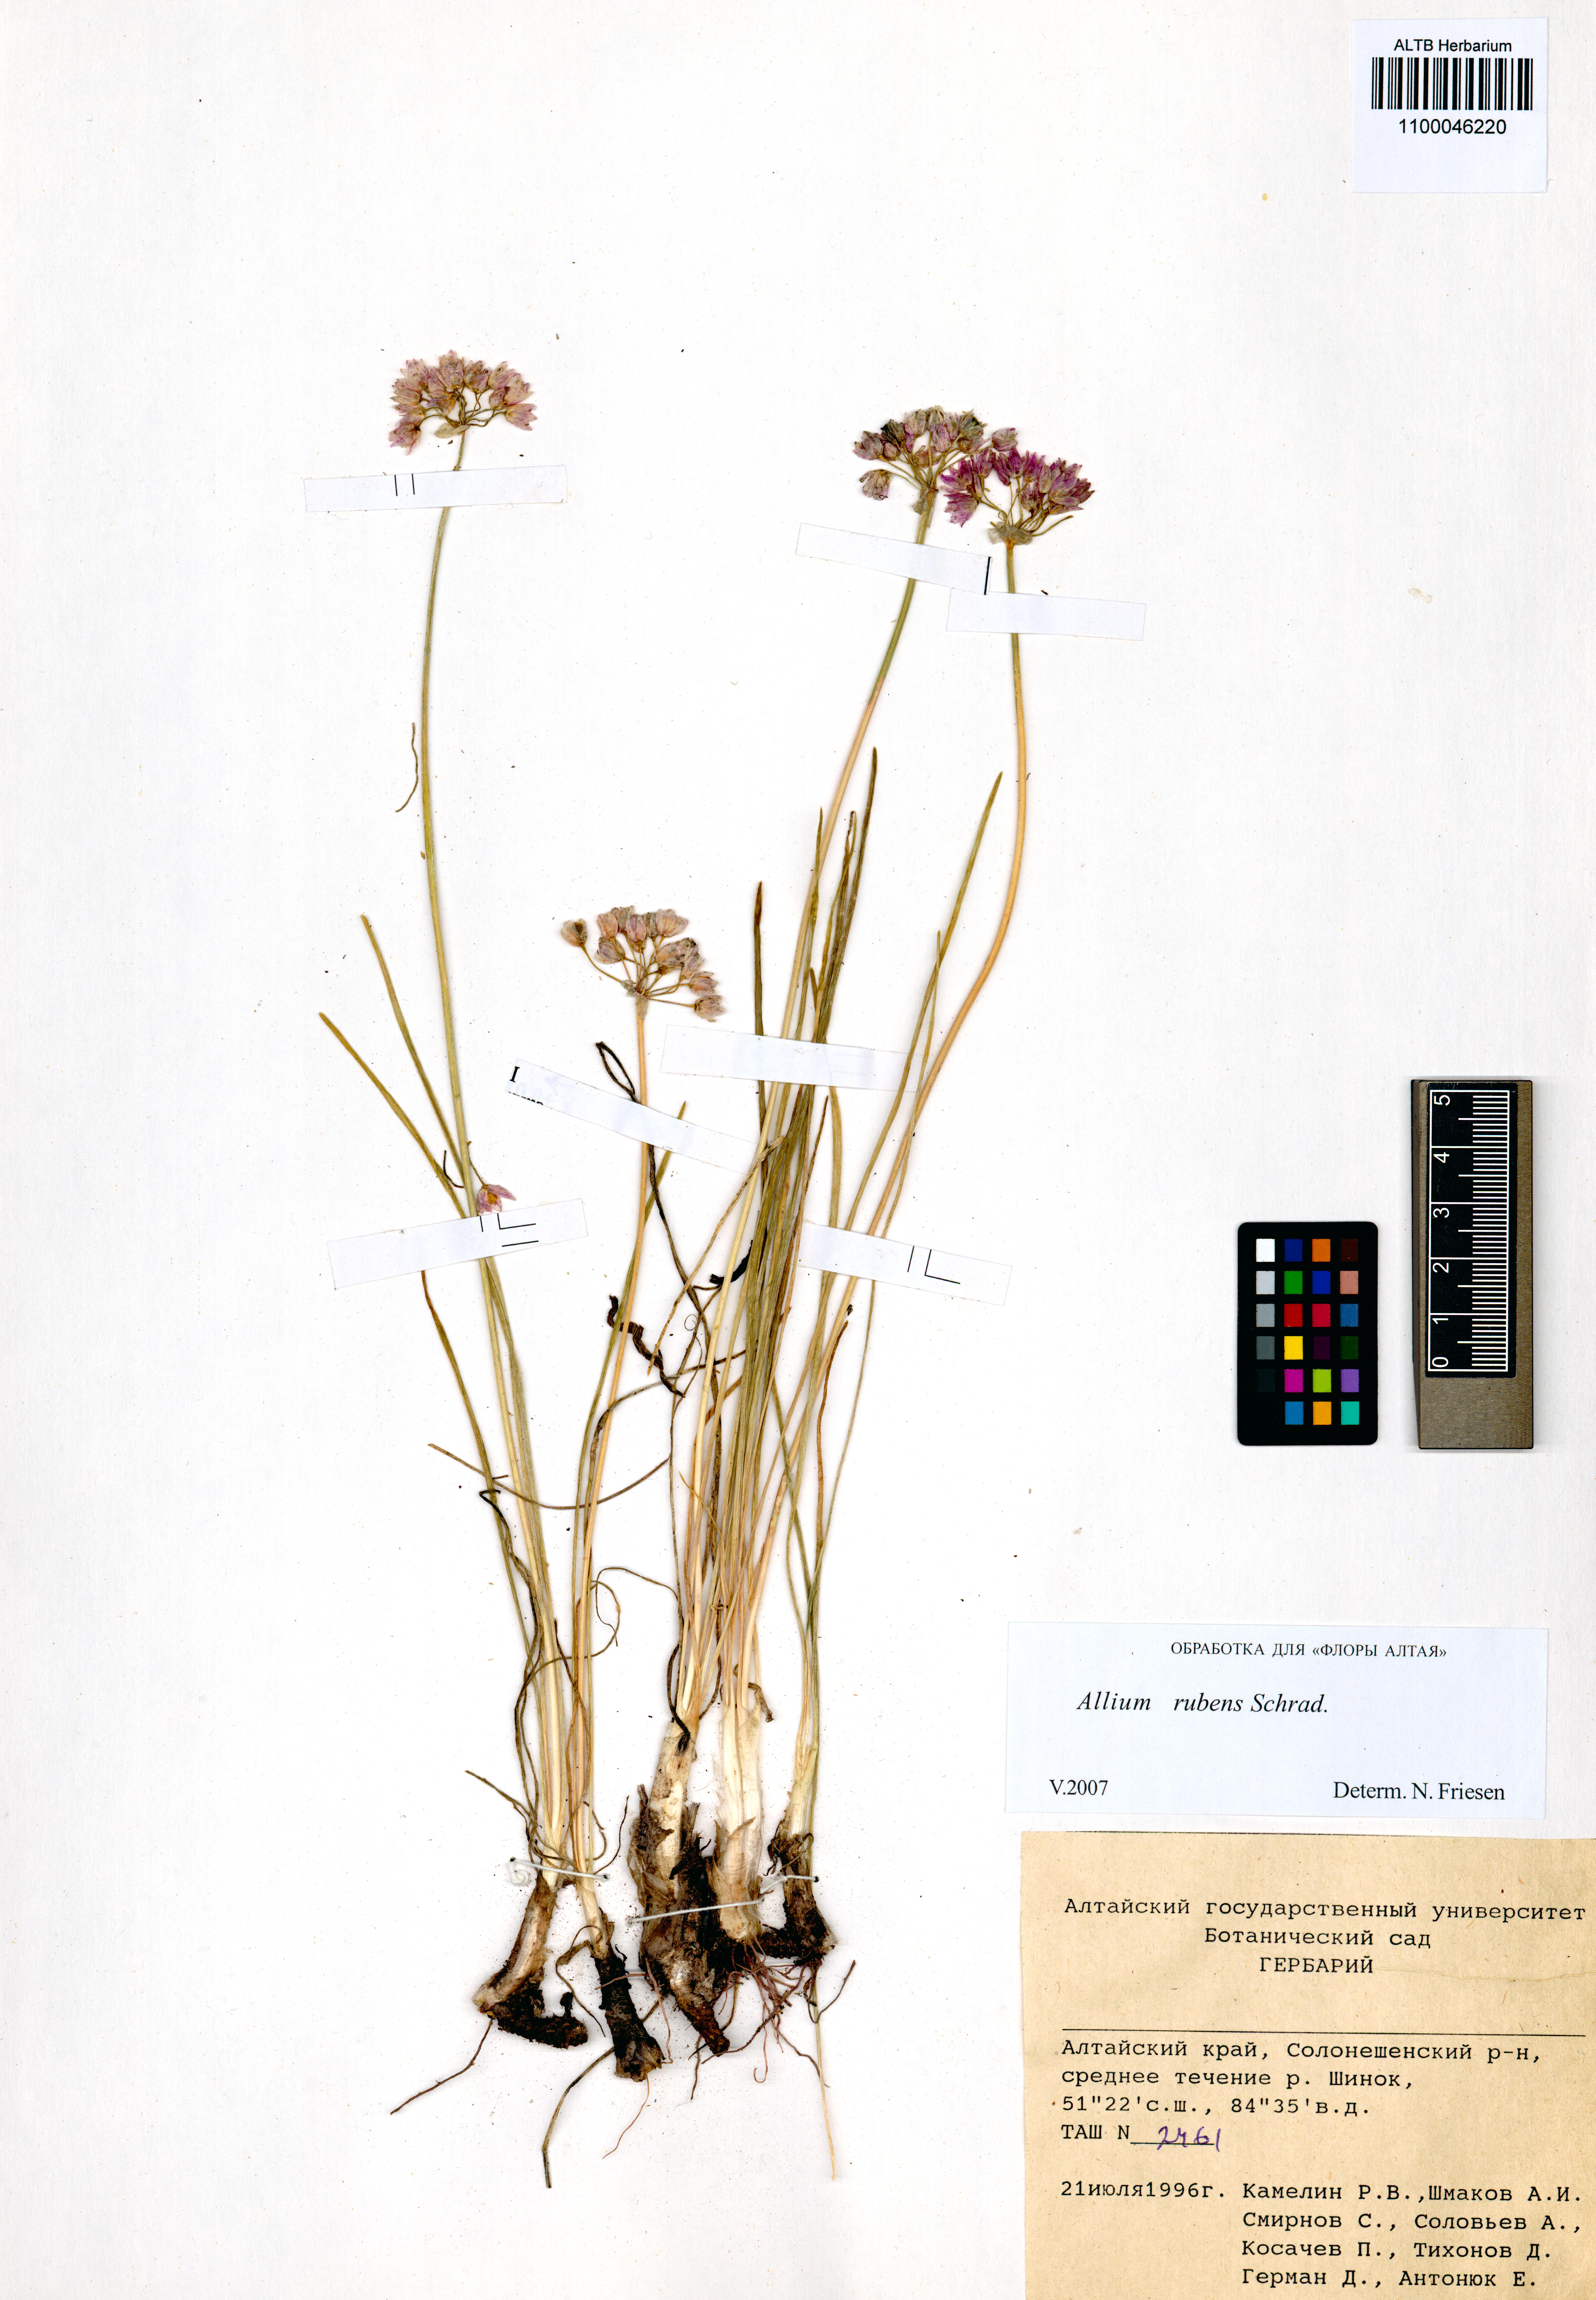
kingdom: Plantae
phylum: Tracheophyta
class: Liliopsida
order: Asparagales
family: Amaryllidaceae
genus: Allium
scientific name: Allium rubens
